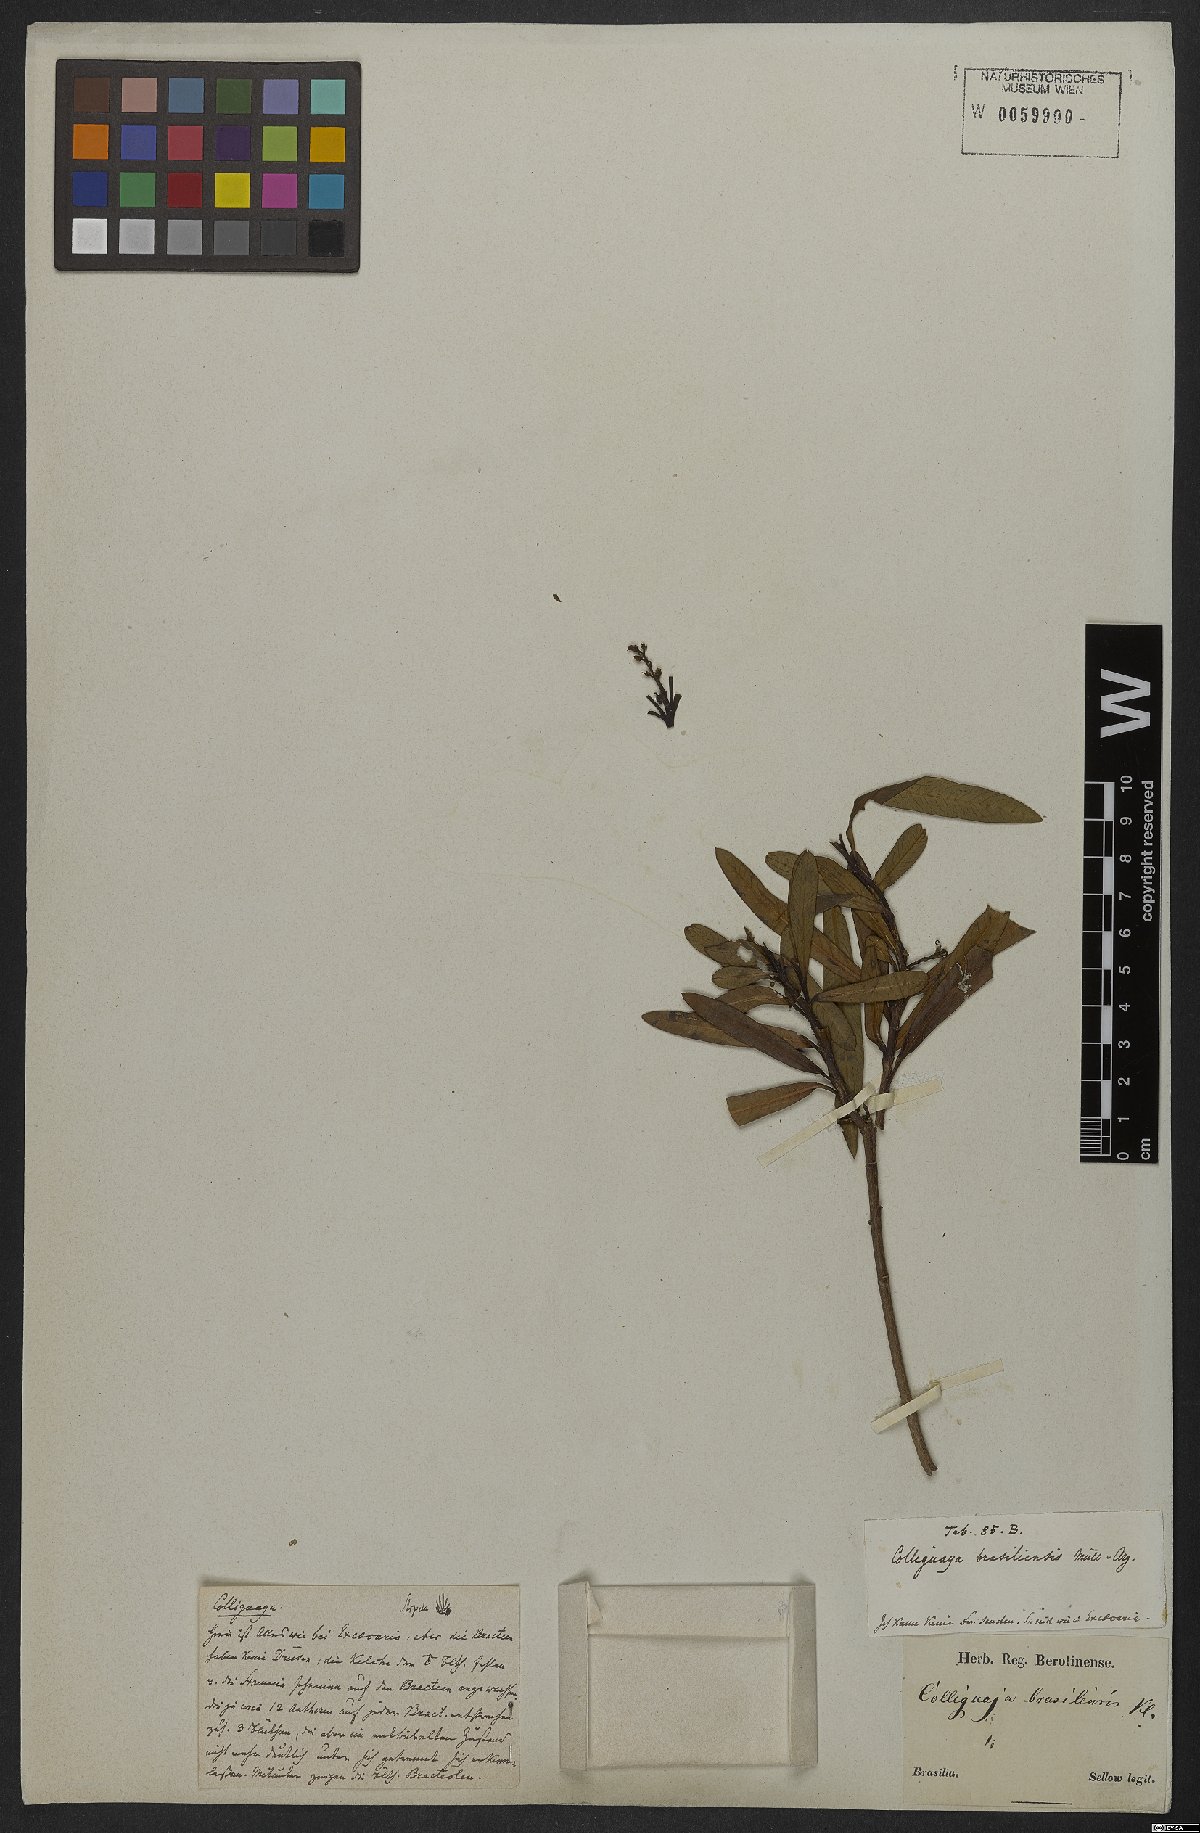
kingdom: Plantae
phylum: Tracheophyta
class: Magnoliopsida
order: Malpighiales
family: Euphorbiaceae
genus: Colliguaja
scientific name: Colliguaja brasiliensis
